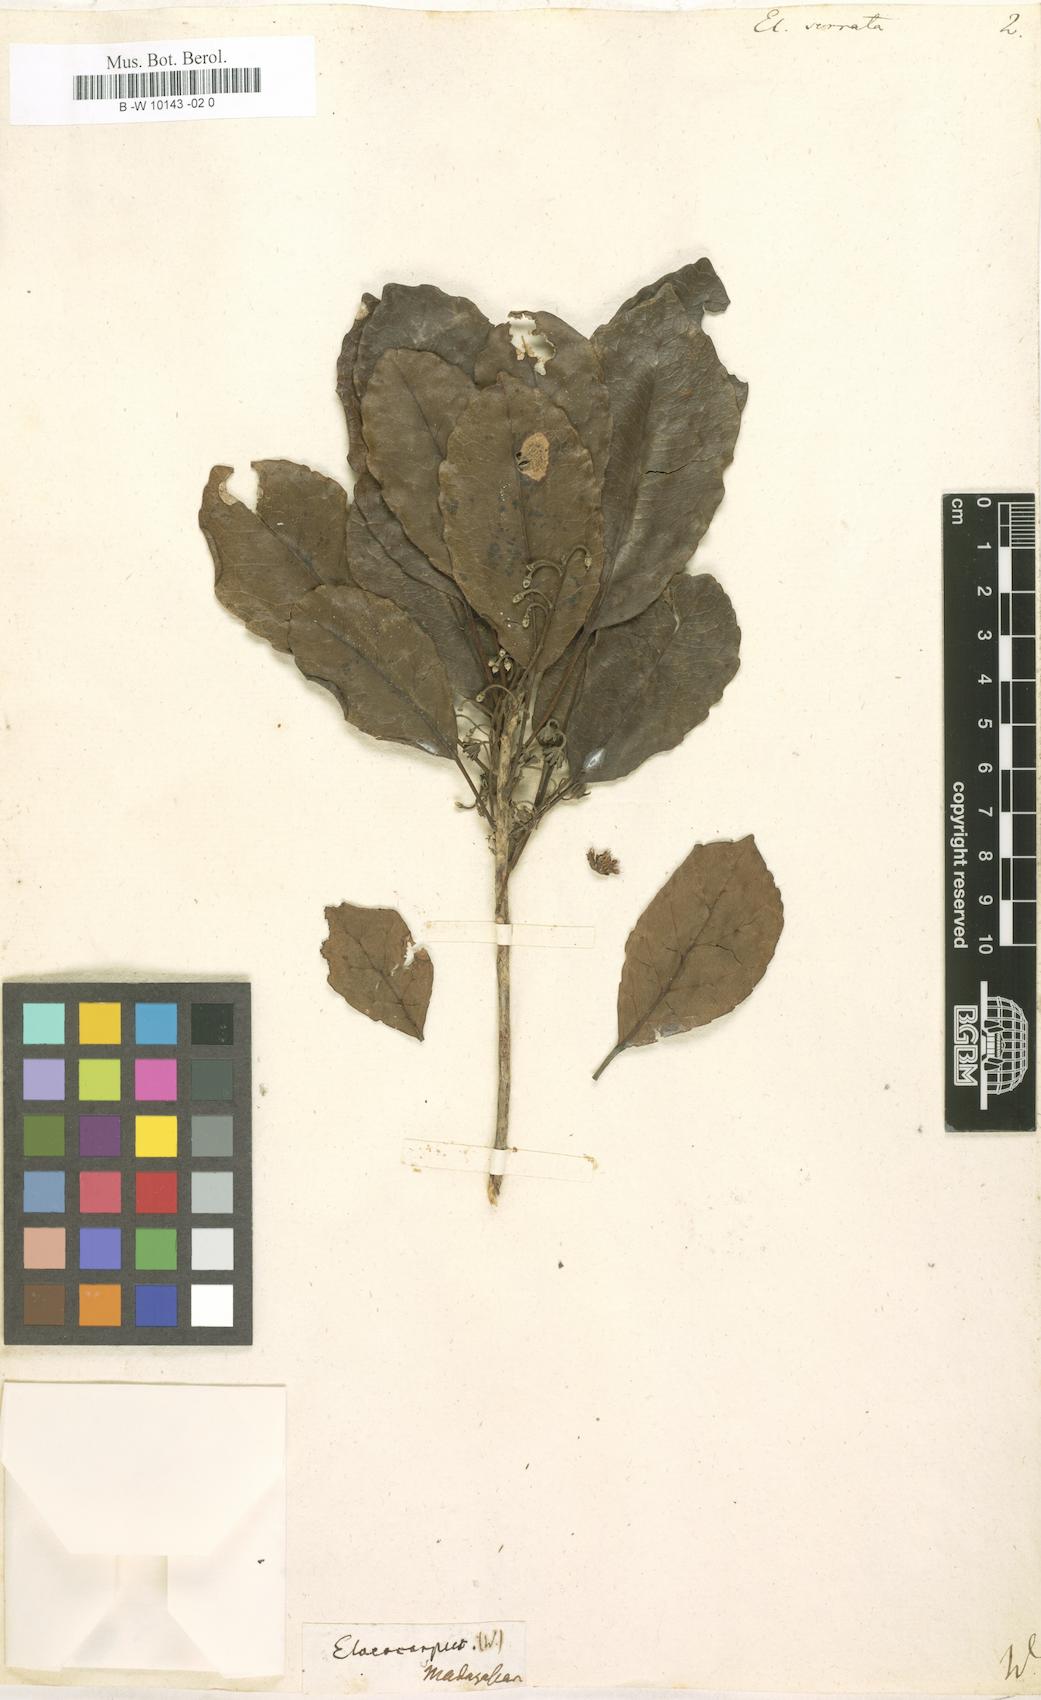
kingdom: Plantae
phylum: Tracheophyta
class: Magnoliopsida
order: Oxalidales
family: Elaeocarpaceae
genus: Elaeocarpus
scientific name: Elaeocarpus serratus
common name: Ceylon-olive
